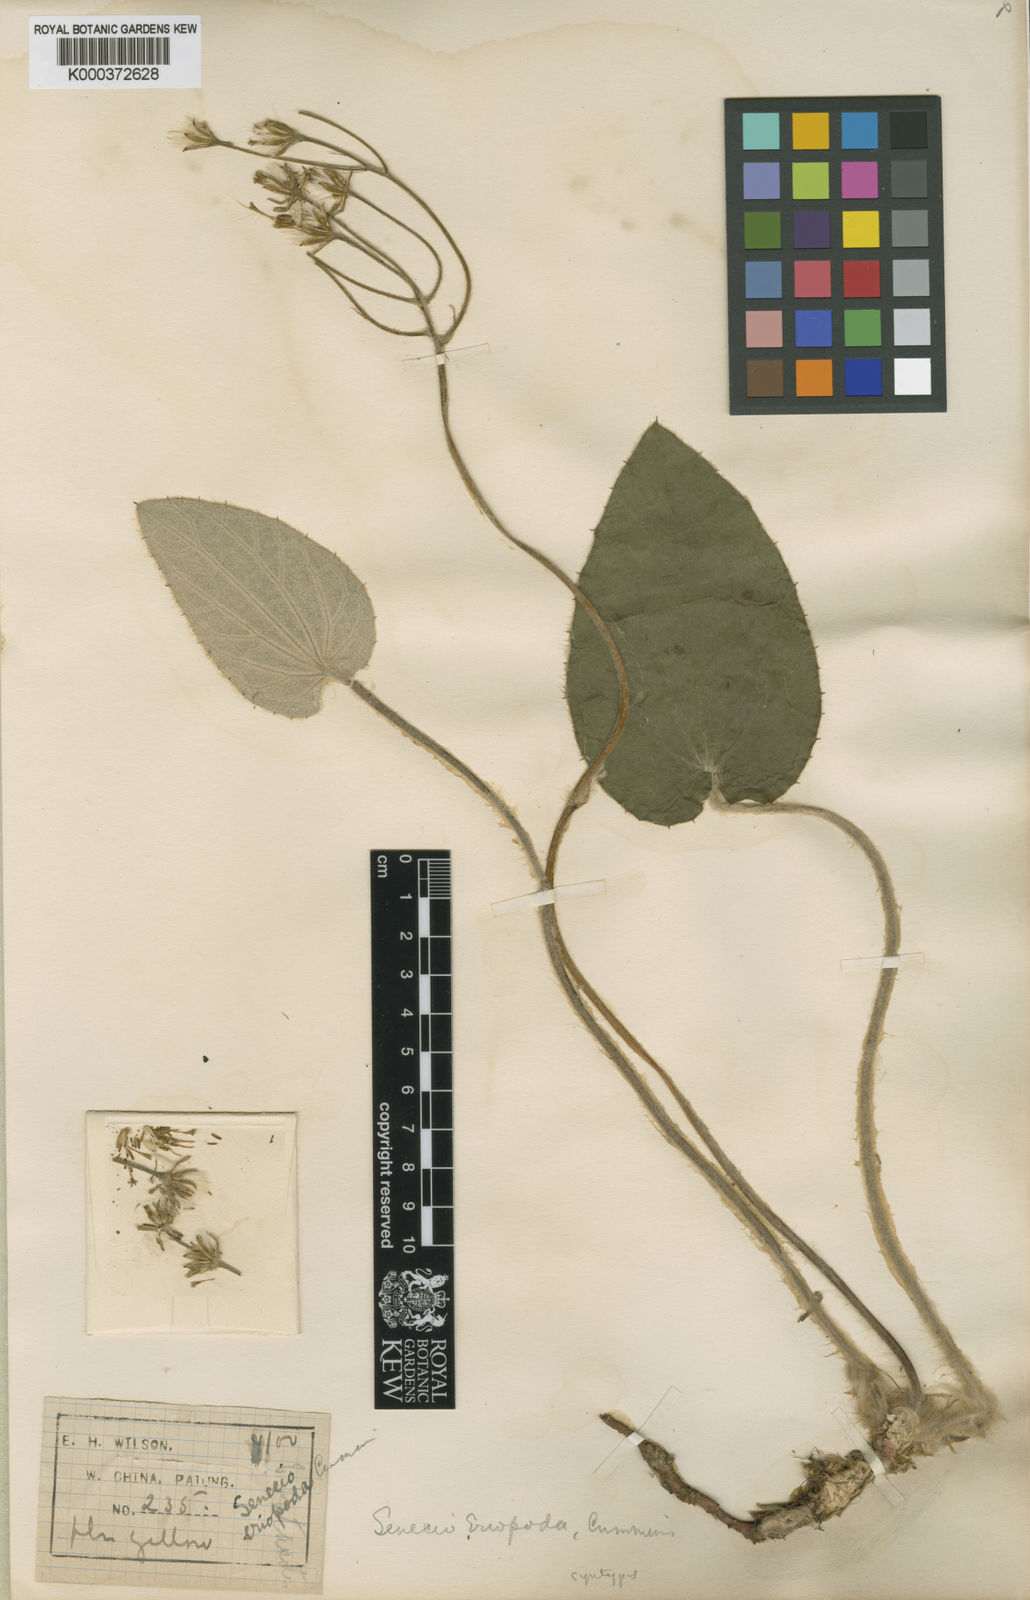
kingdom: Plantae
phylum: Tracheophyta
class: Magnoliopsida
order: Asterales
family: Asteraceae
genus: Sinosenecio
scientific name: Sinosenecio eriopodus
